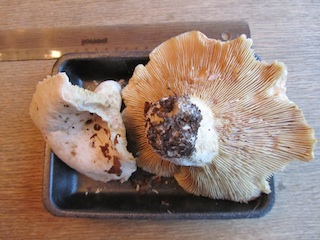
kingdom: Fungi
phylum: Basidiomycota
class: Agaricomycetes
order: Russulales
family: Russulaceae
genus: Lactifluus
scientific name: Lactifluus bertillonii
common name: blødfiltet mælkehat
